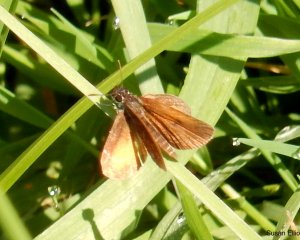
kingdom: Animalia
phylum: Arthropoda
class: Insecta
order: Lepidoptera
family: Hesperiidae
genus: Ancyloxypha
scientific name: Ancyloxypha numitor
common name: Least Skipper
